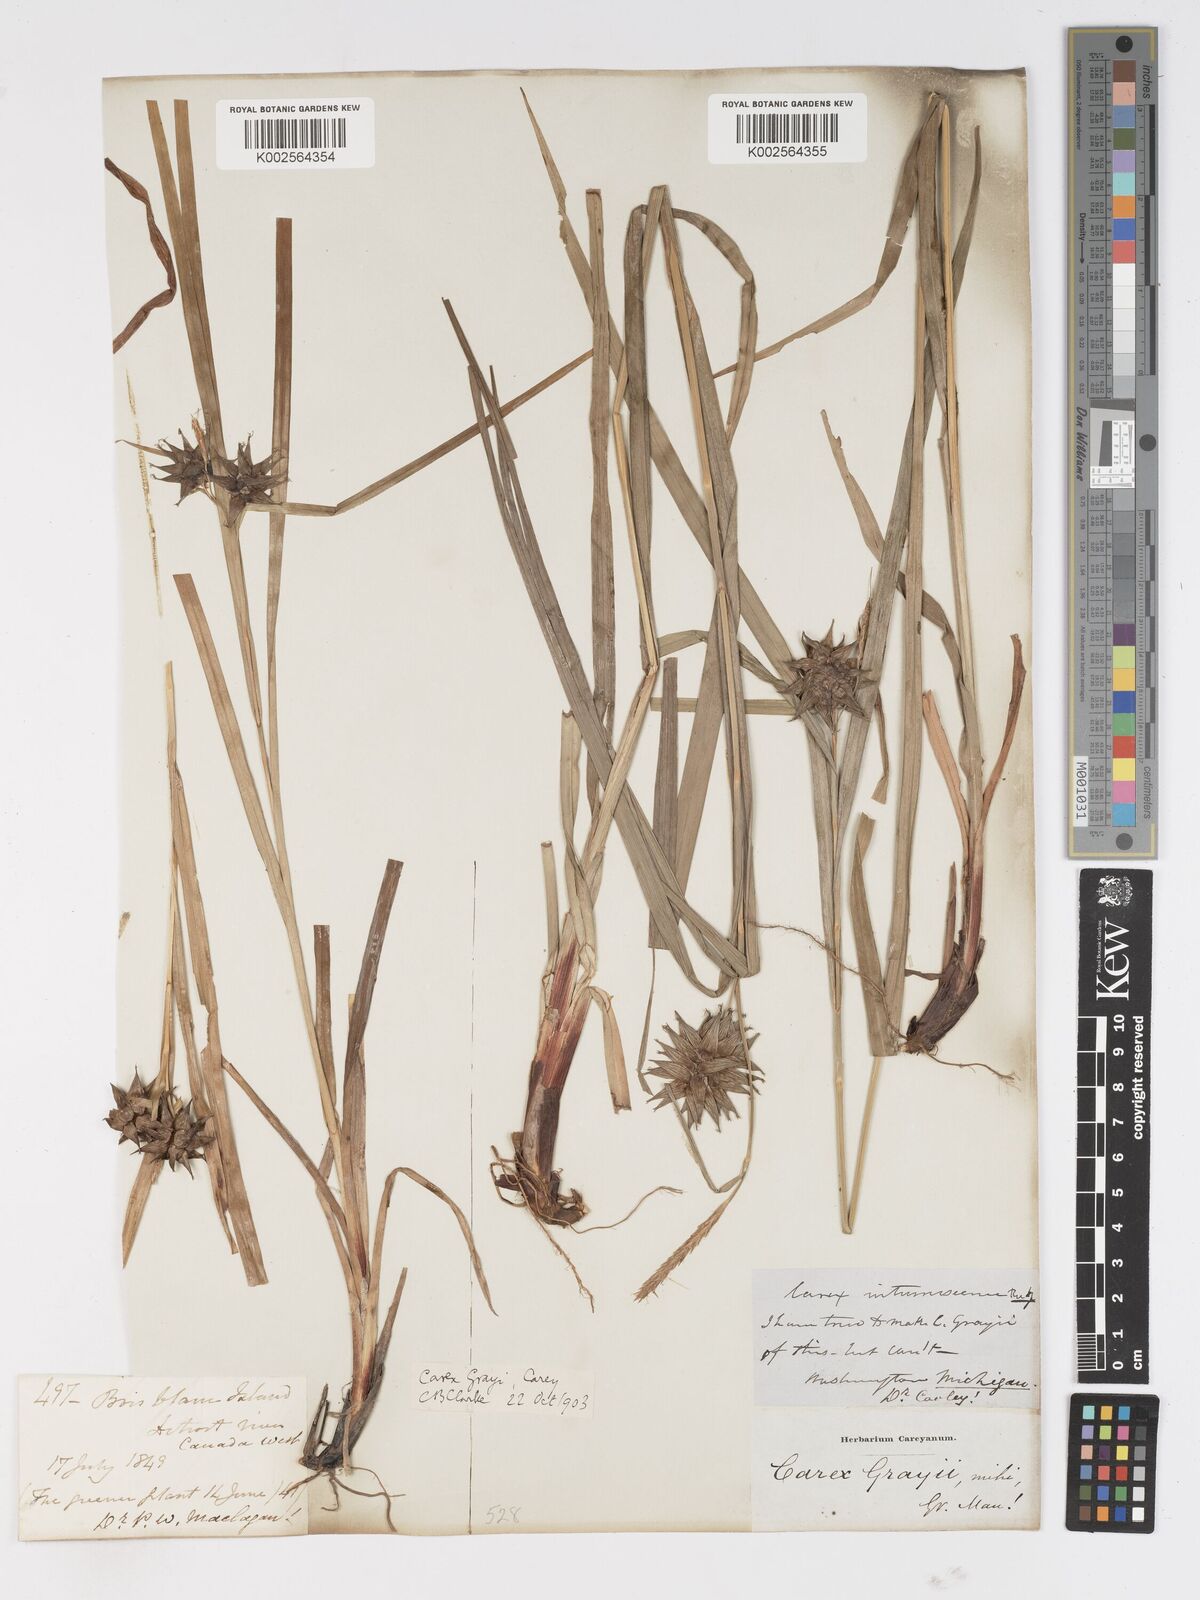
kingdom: Plantae
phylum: Tracheophyta
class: Liliopsida
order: Poales
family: Cyperaceae
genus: Carex
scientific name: Carex grayi
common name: Asa gray's sedge
